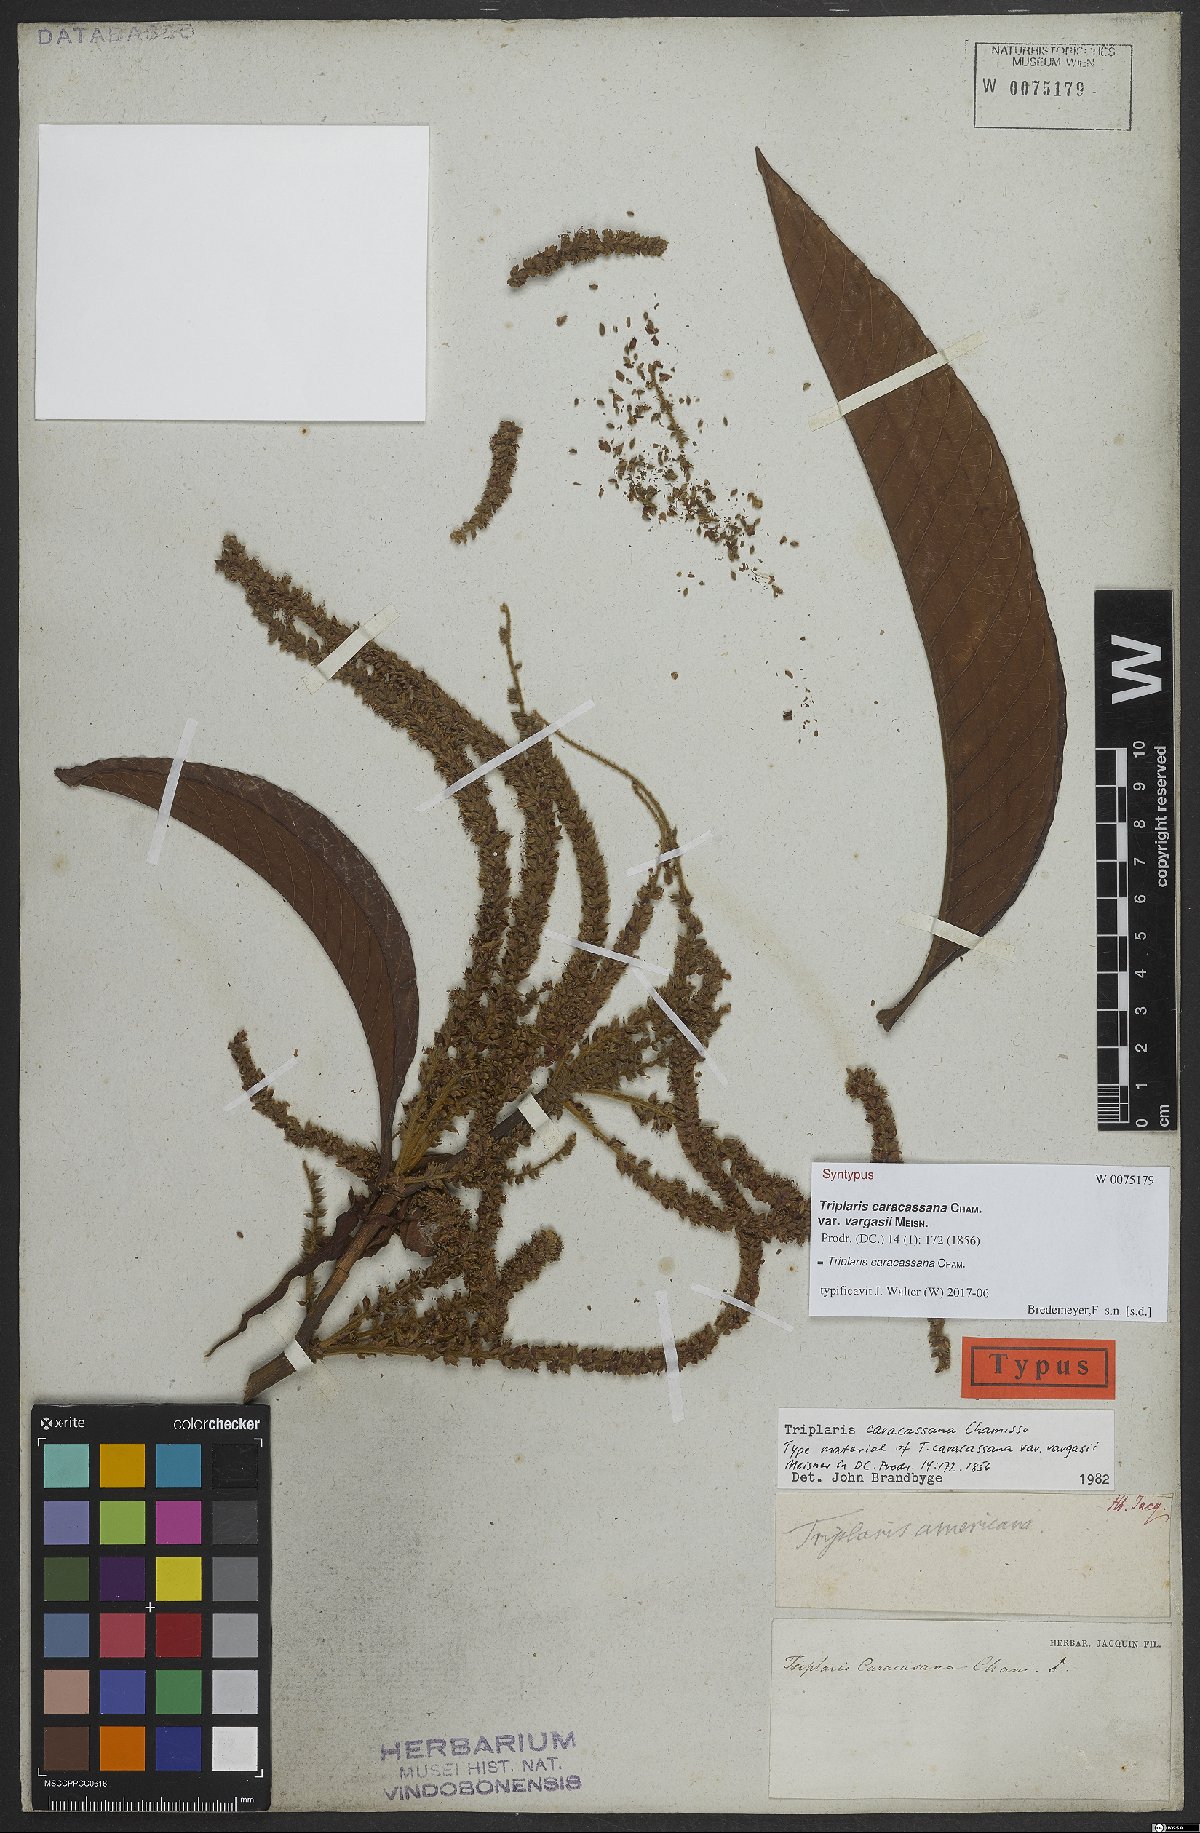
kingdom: Plantae
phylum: Tracheophyta
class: Magnoliopsida
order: Caryophyllales
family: Polygonaceae
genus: Triplaris
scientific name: Triplaris caracasana
